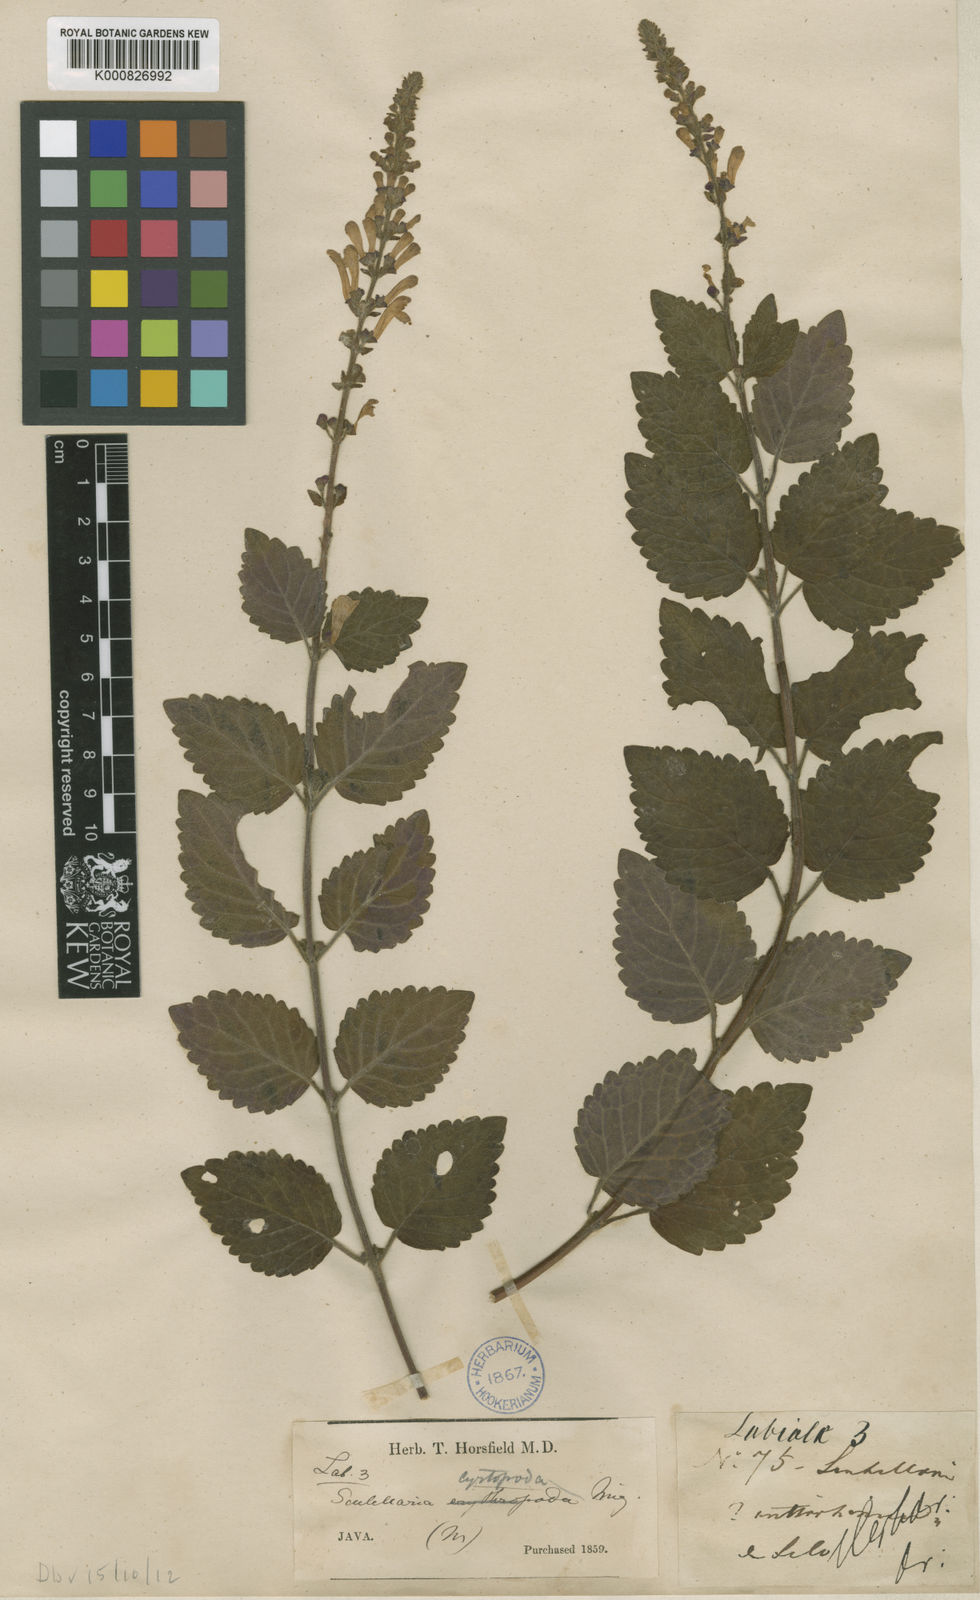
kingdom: Plantae
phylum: Tracheophyta
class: Magnoliopsida
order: Lamiales
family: Lamiaceae
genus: Scutellaria
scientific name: Scutellaria discolor
